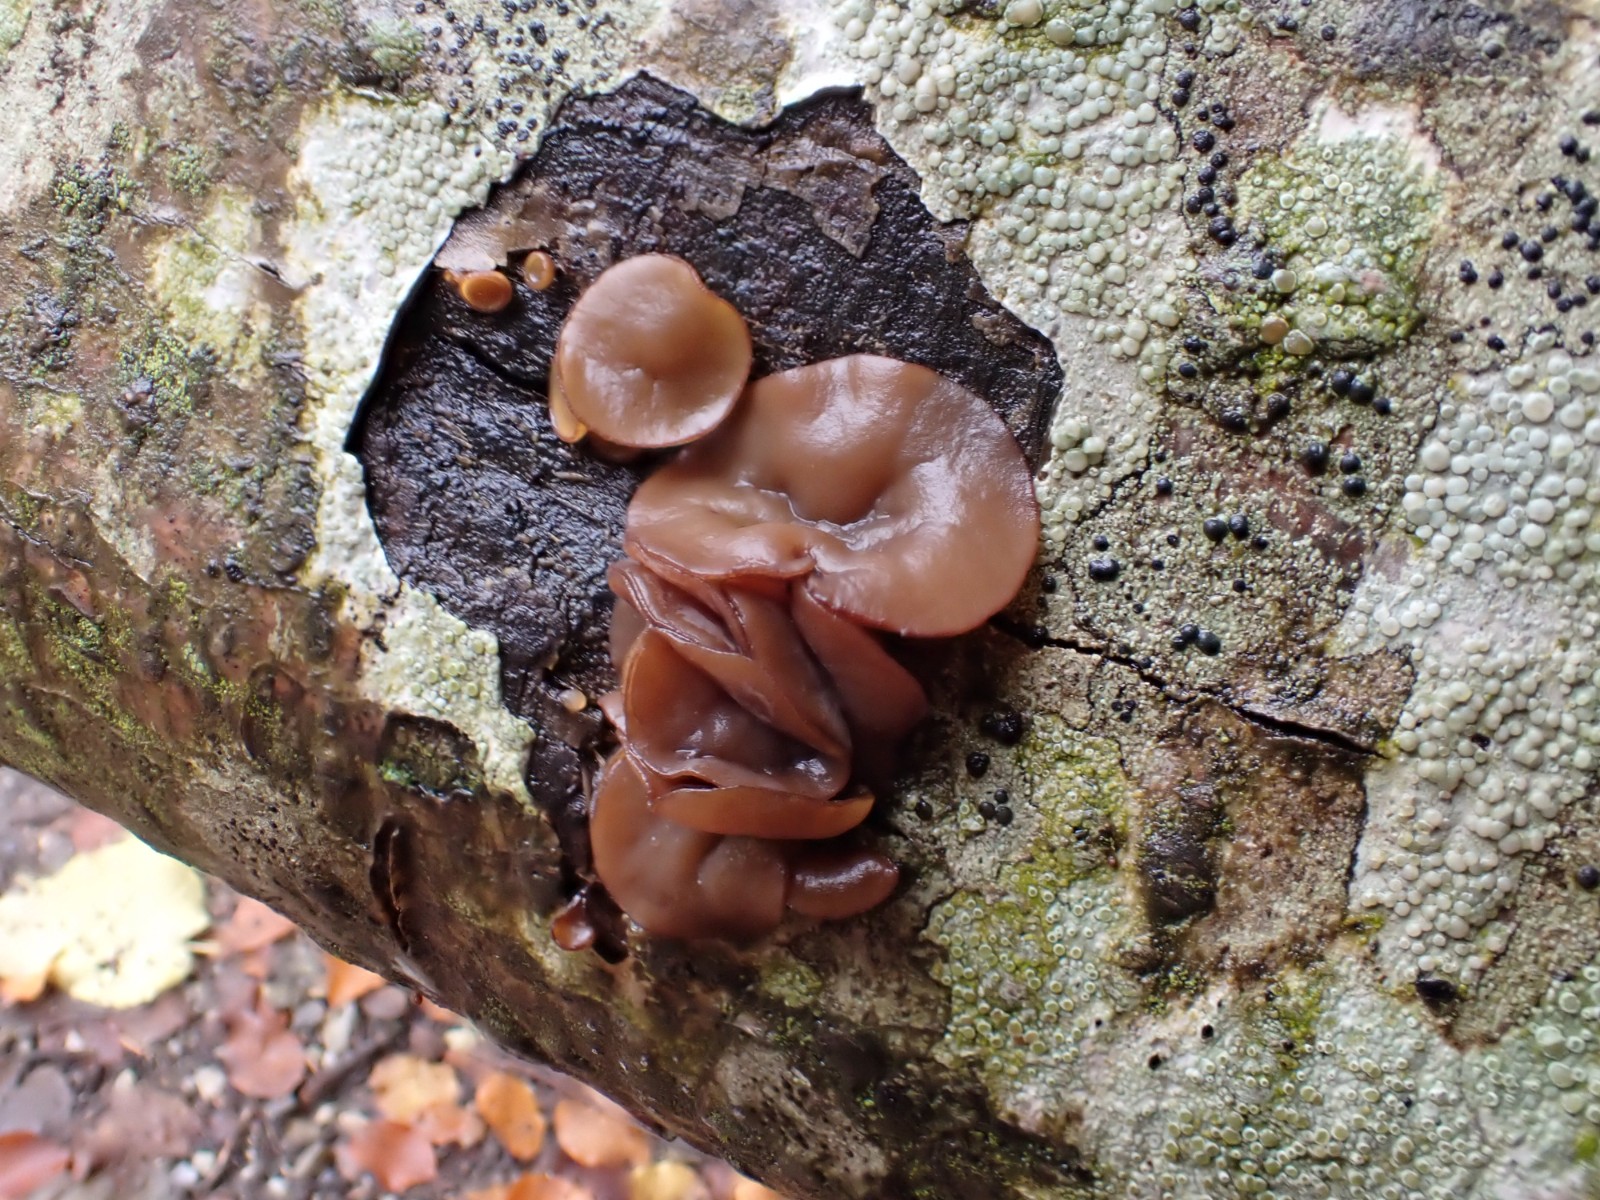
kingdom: Fungi
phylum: Ascomycota
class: Leotiomycetes
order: Helotiales
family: Rutstroemiaceae
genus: Rutstroemia
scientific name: Rutstroemia firma
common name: gren-brunskive
